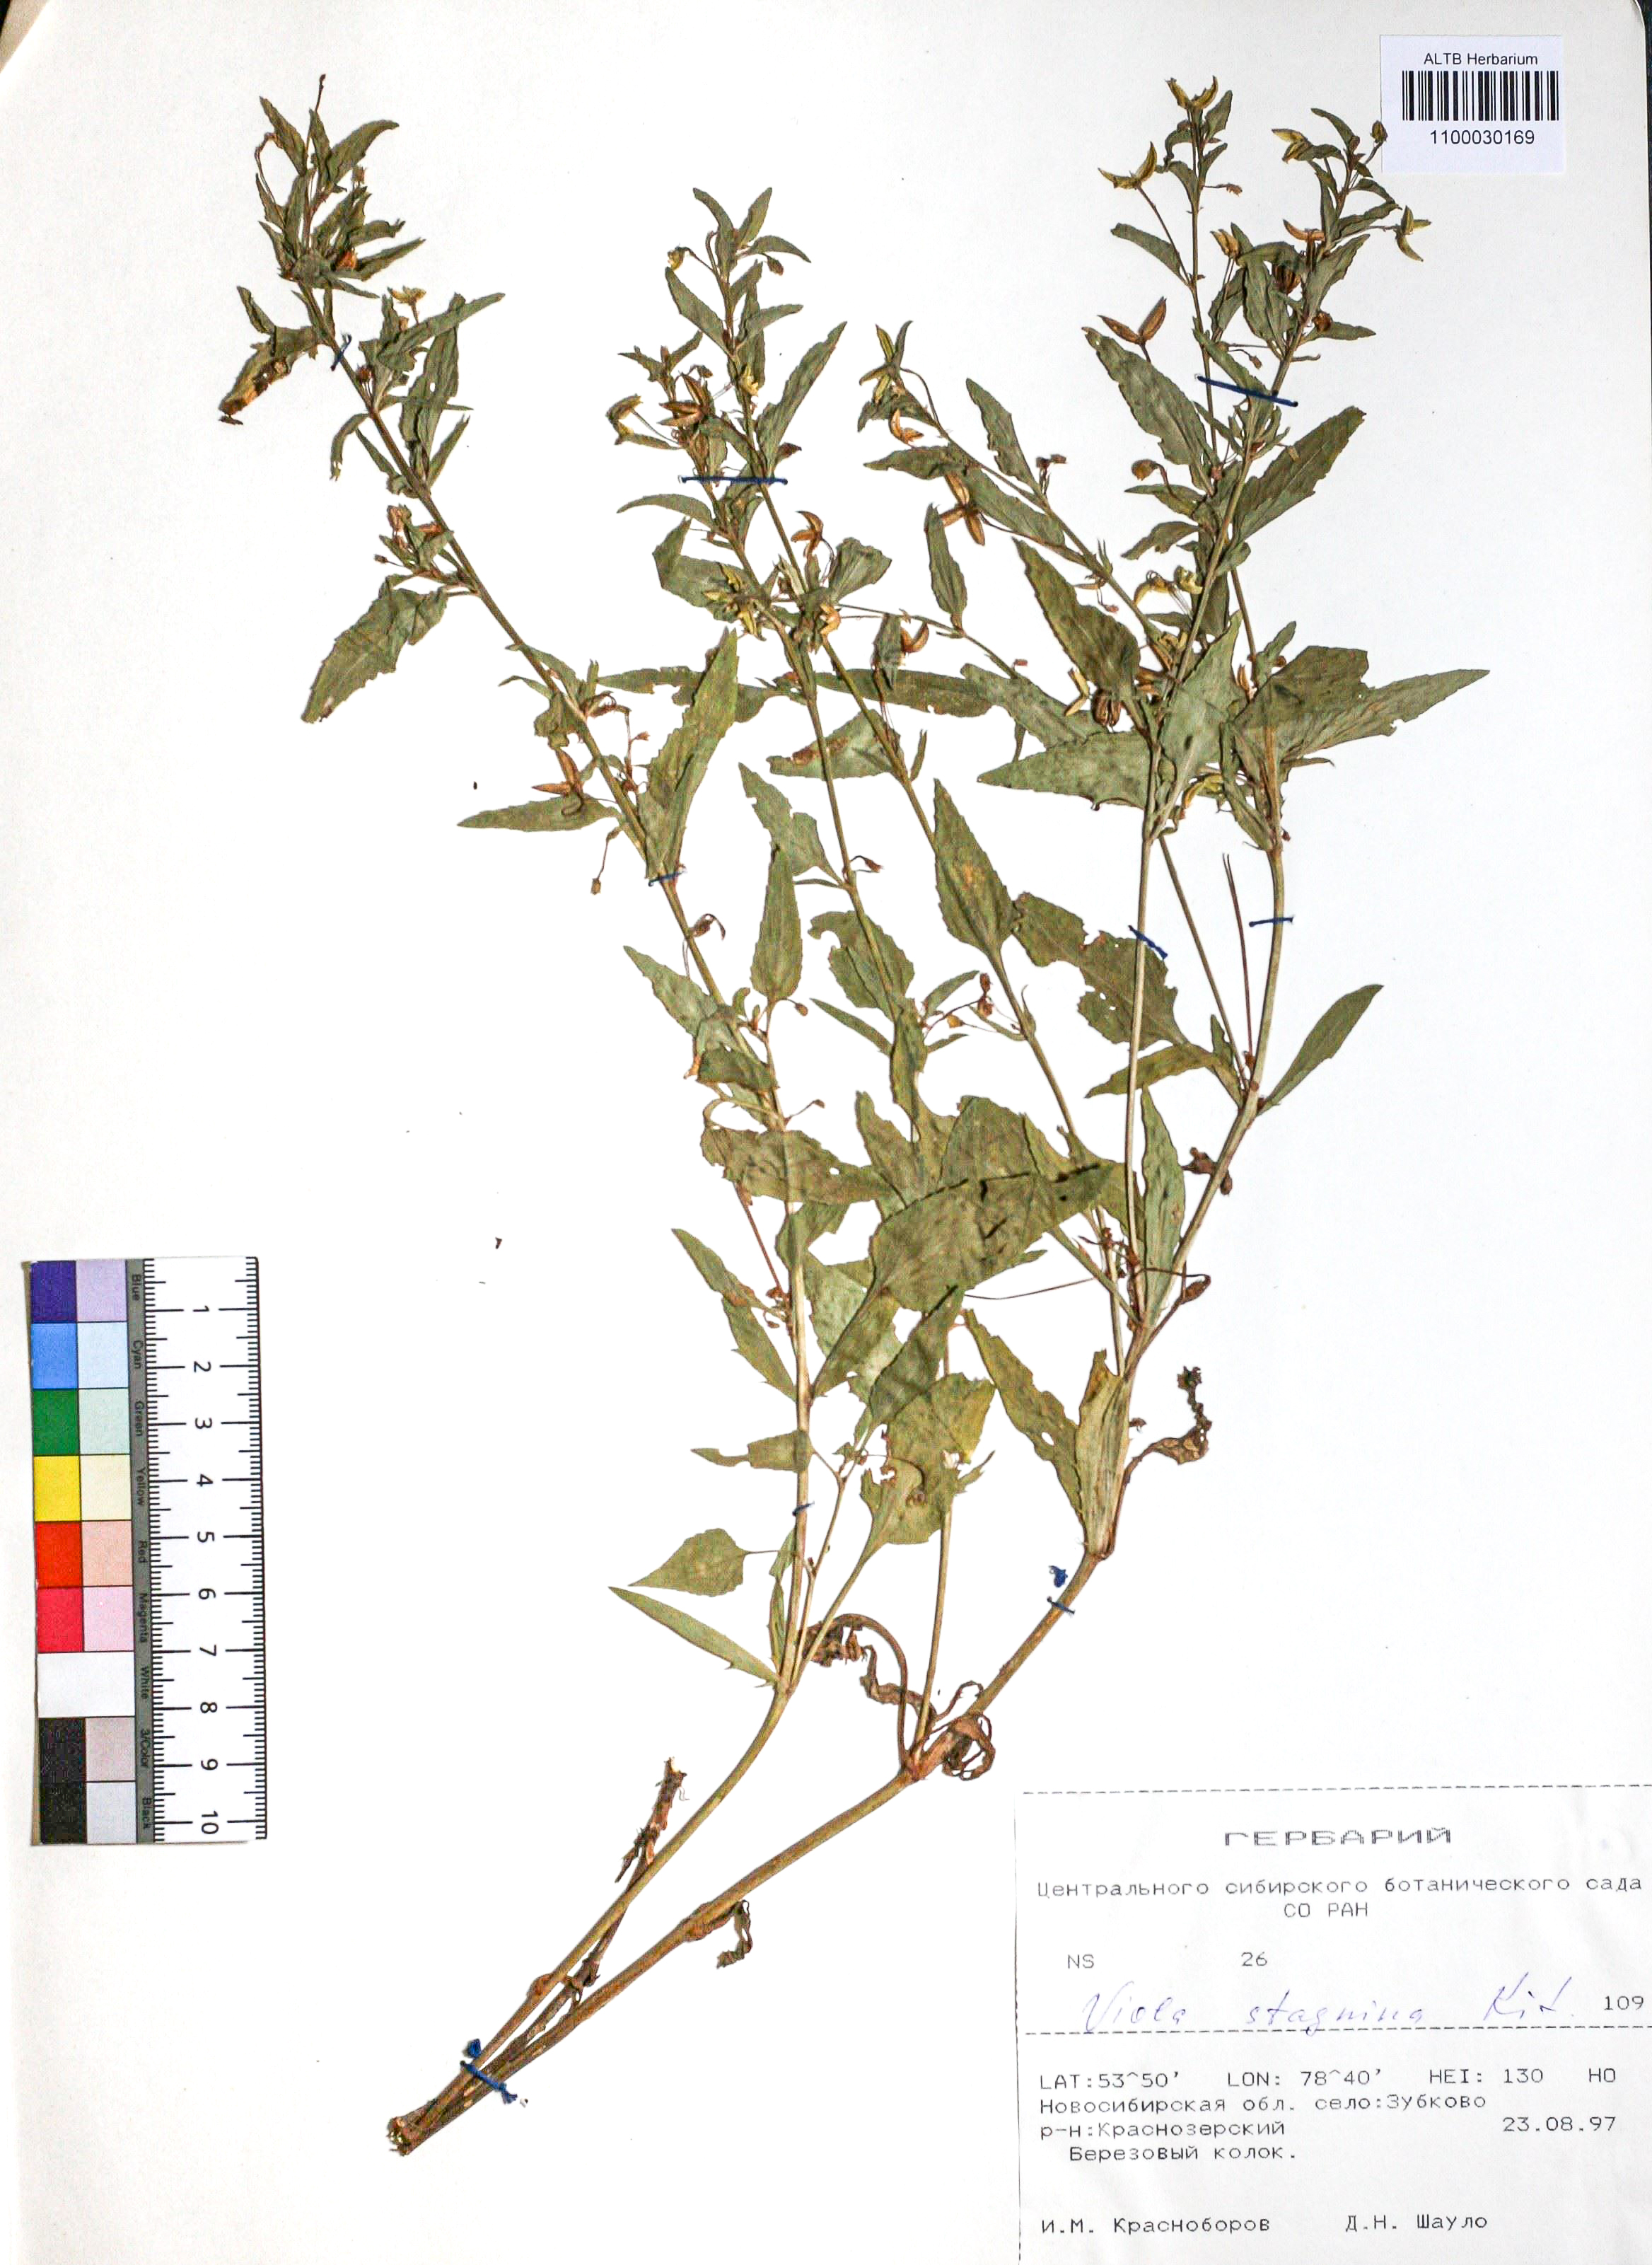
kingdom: Plantae
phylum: Tracheophyta
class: Magnoliopsida
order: Malpighiales
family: Violaceae
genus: Viola
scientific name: Viola stagnina
